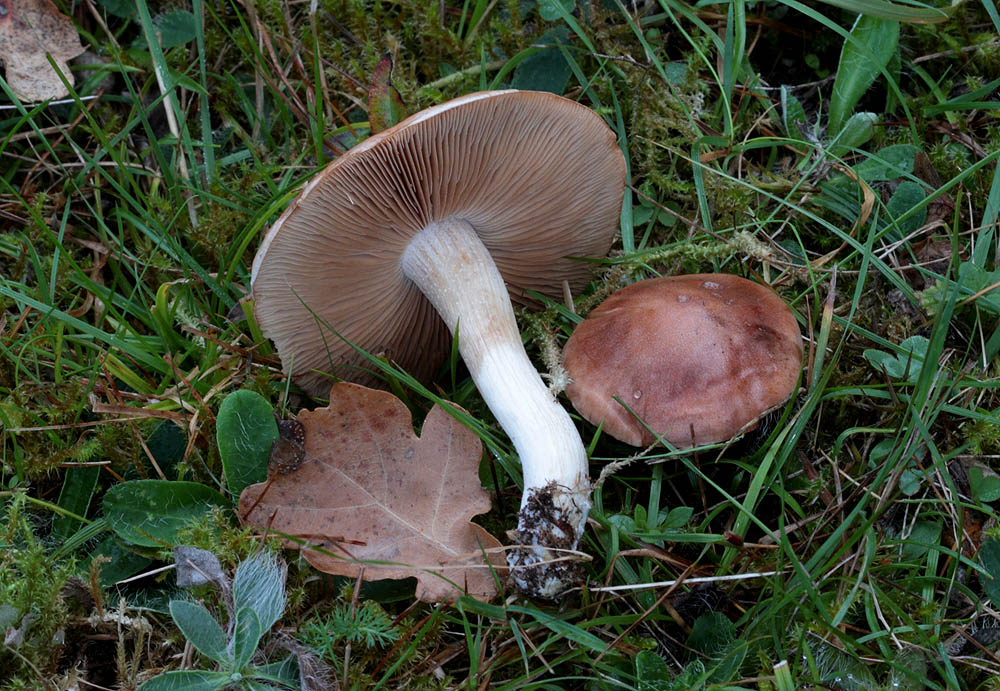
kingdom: Fungi
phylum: Basidiomycota
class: Agaricomycetes
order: Agaricales
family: Hymenogastraceae
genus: Hebeloma
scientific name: Hebeloma theobrominum
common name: rødbrun tåreblad
